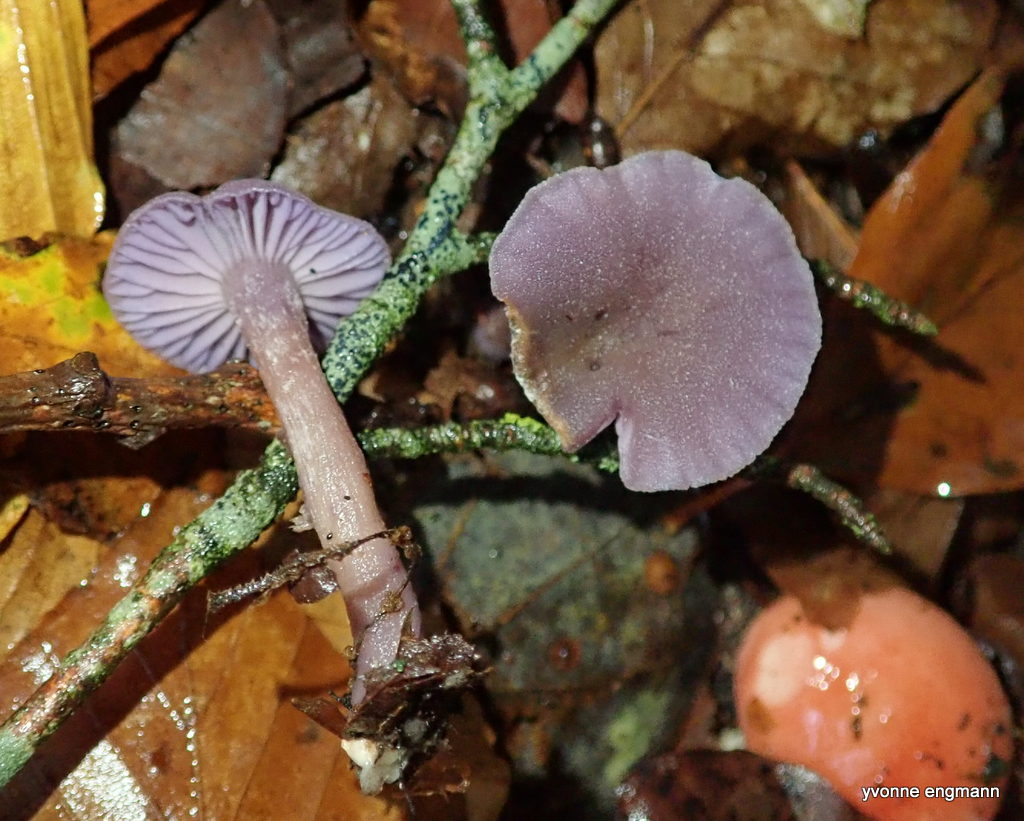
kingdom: Fungi
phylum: Basidiomycota
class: Agaricomycetes
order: Agaricales
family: Hydnangiaceae
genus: Laccaria
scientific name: Laccaria amethystina
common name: violet ametysthat
